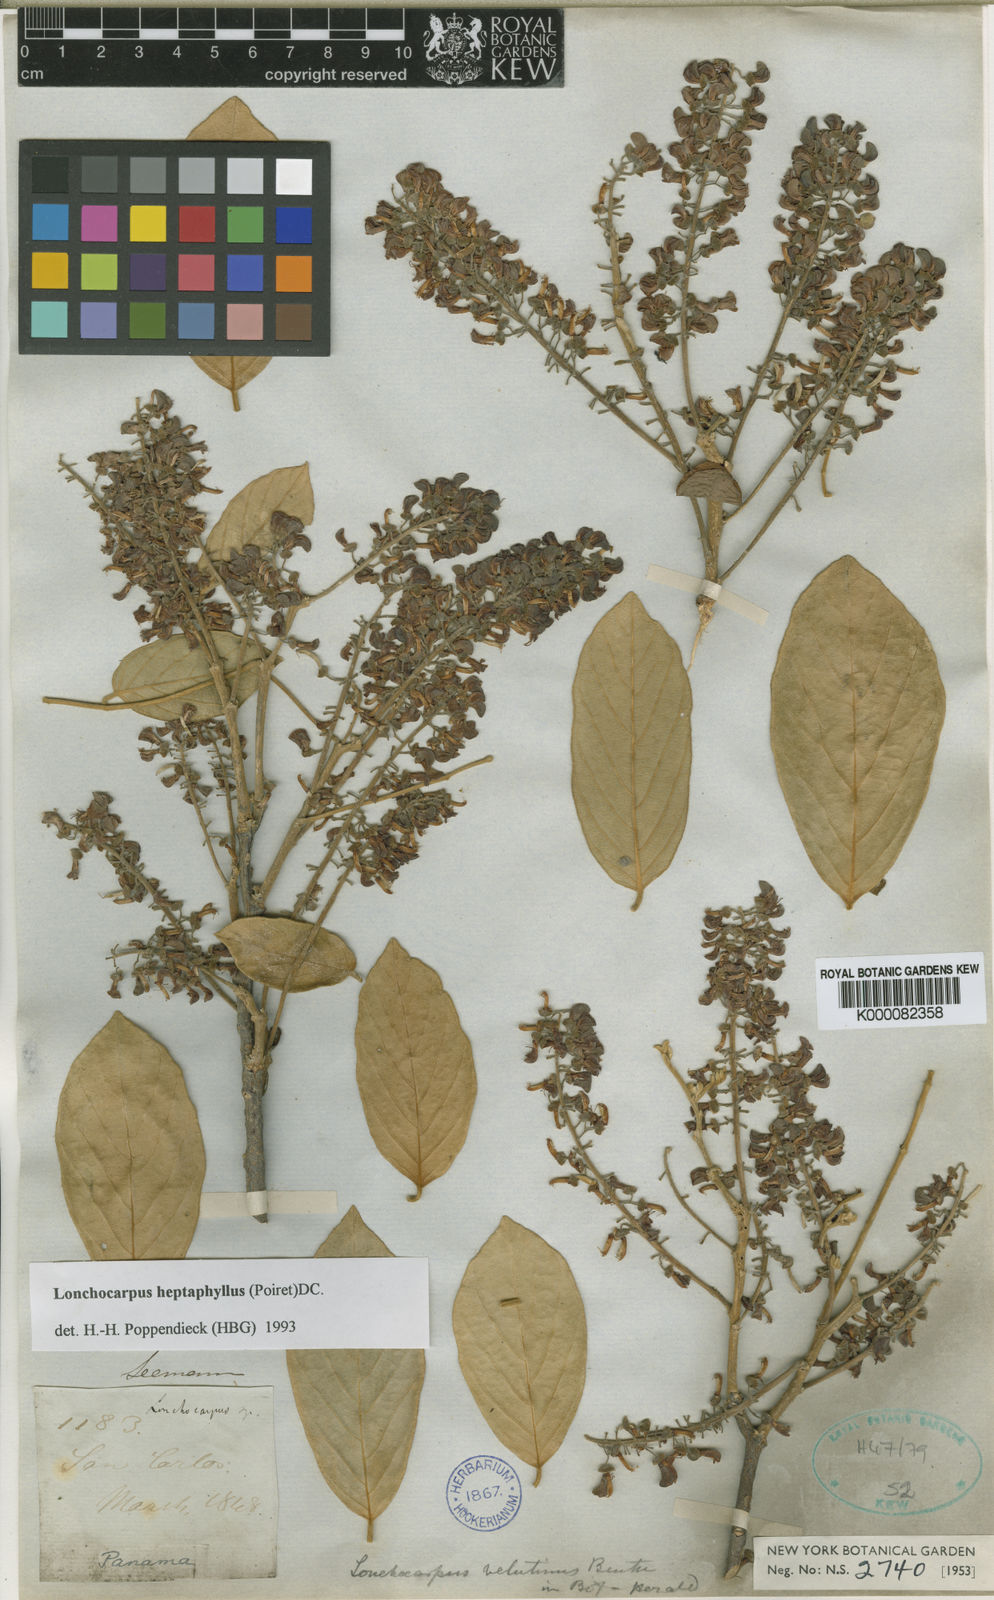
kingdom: Plantae
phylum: Tracheophyta
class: Magnoliopsida
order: Fabales
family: Fabaceae
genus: Lonchocarpus
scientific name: Lonchocarpus velutinus
